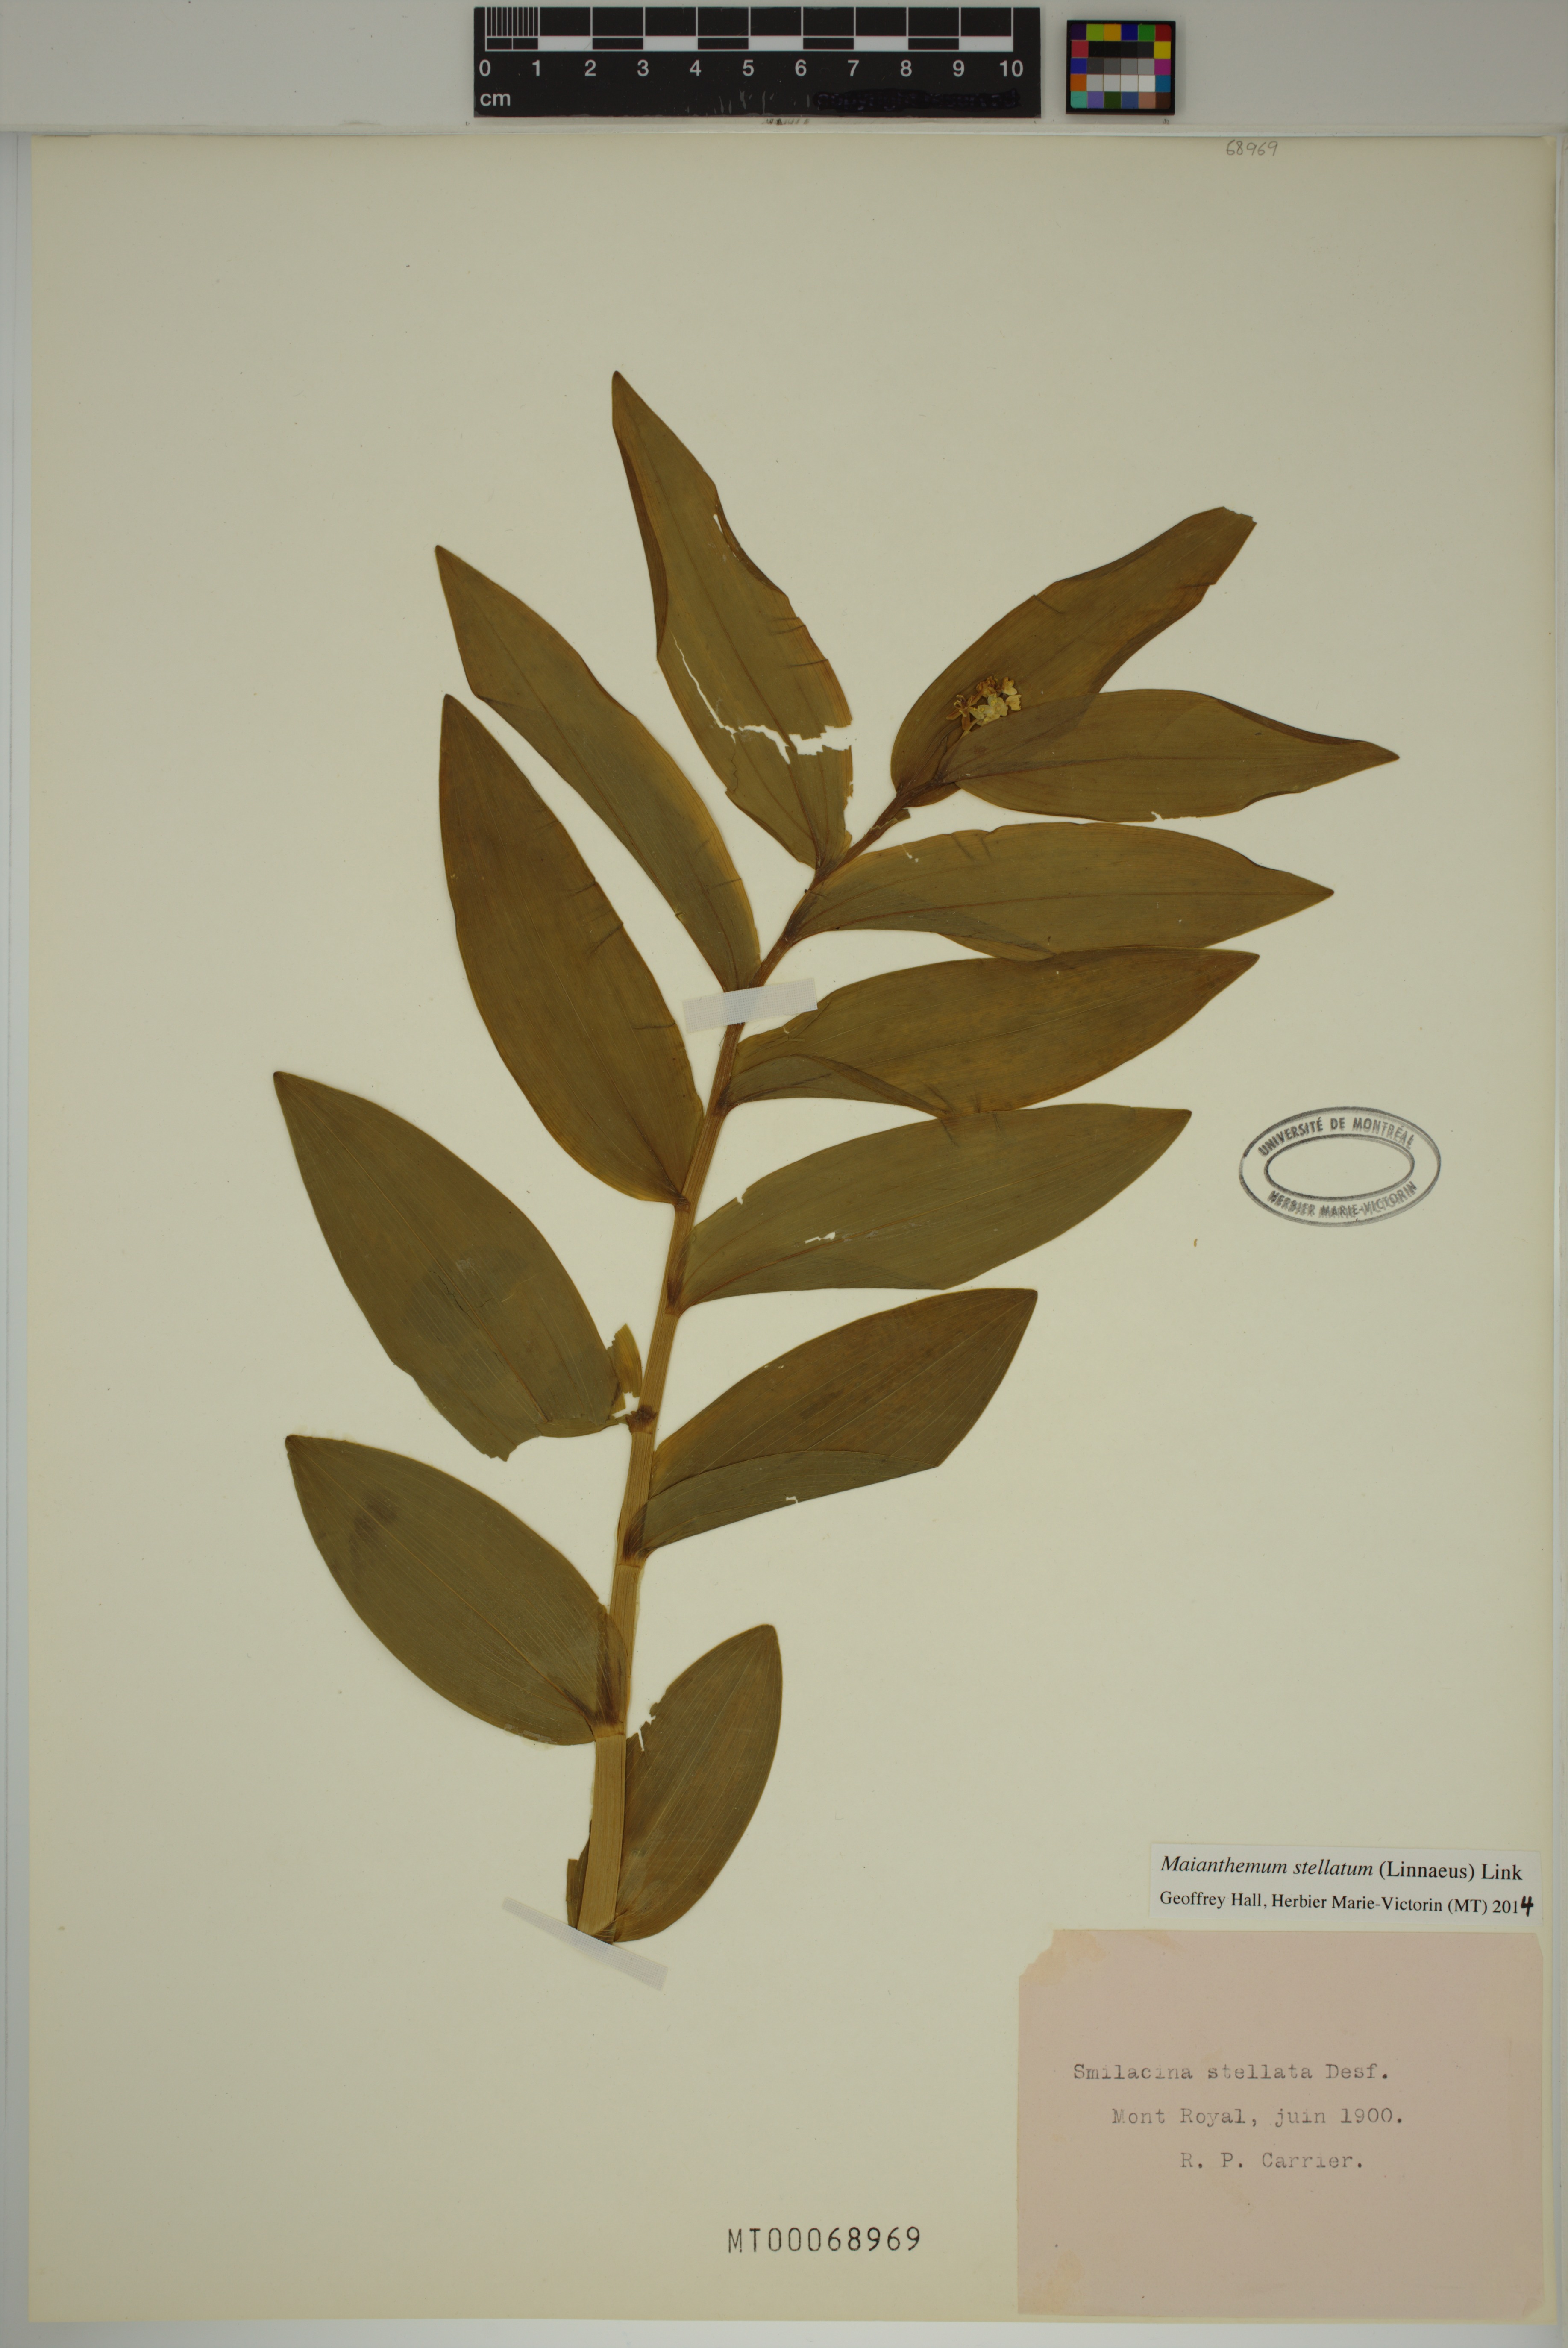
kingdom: Plantae
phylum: Tracheophyta
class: Liliopsida
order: Asparagales
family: Asparagaceae
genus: Maianthemum
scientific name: Maianthemum stellatum
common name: Little false solomon's seal
